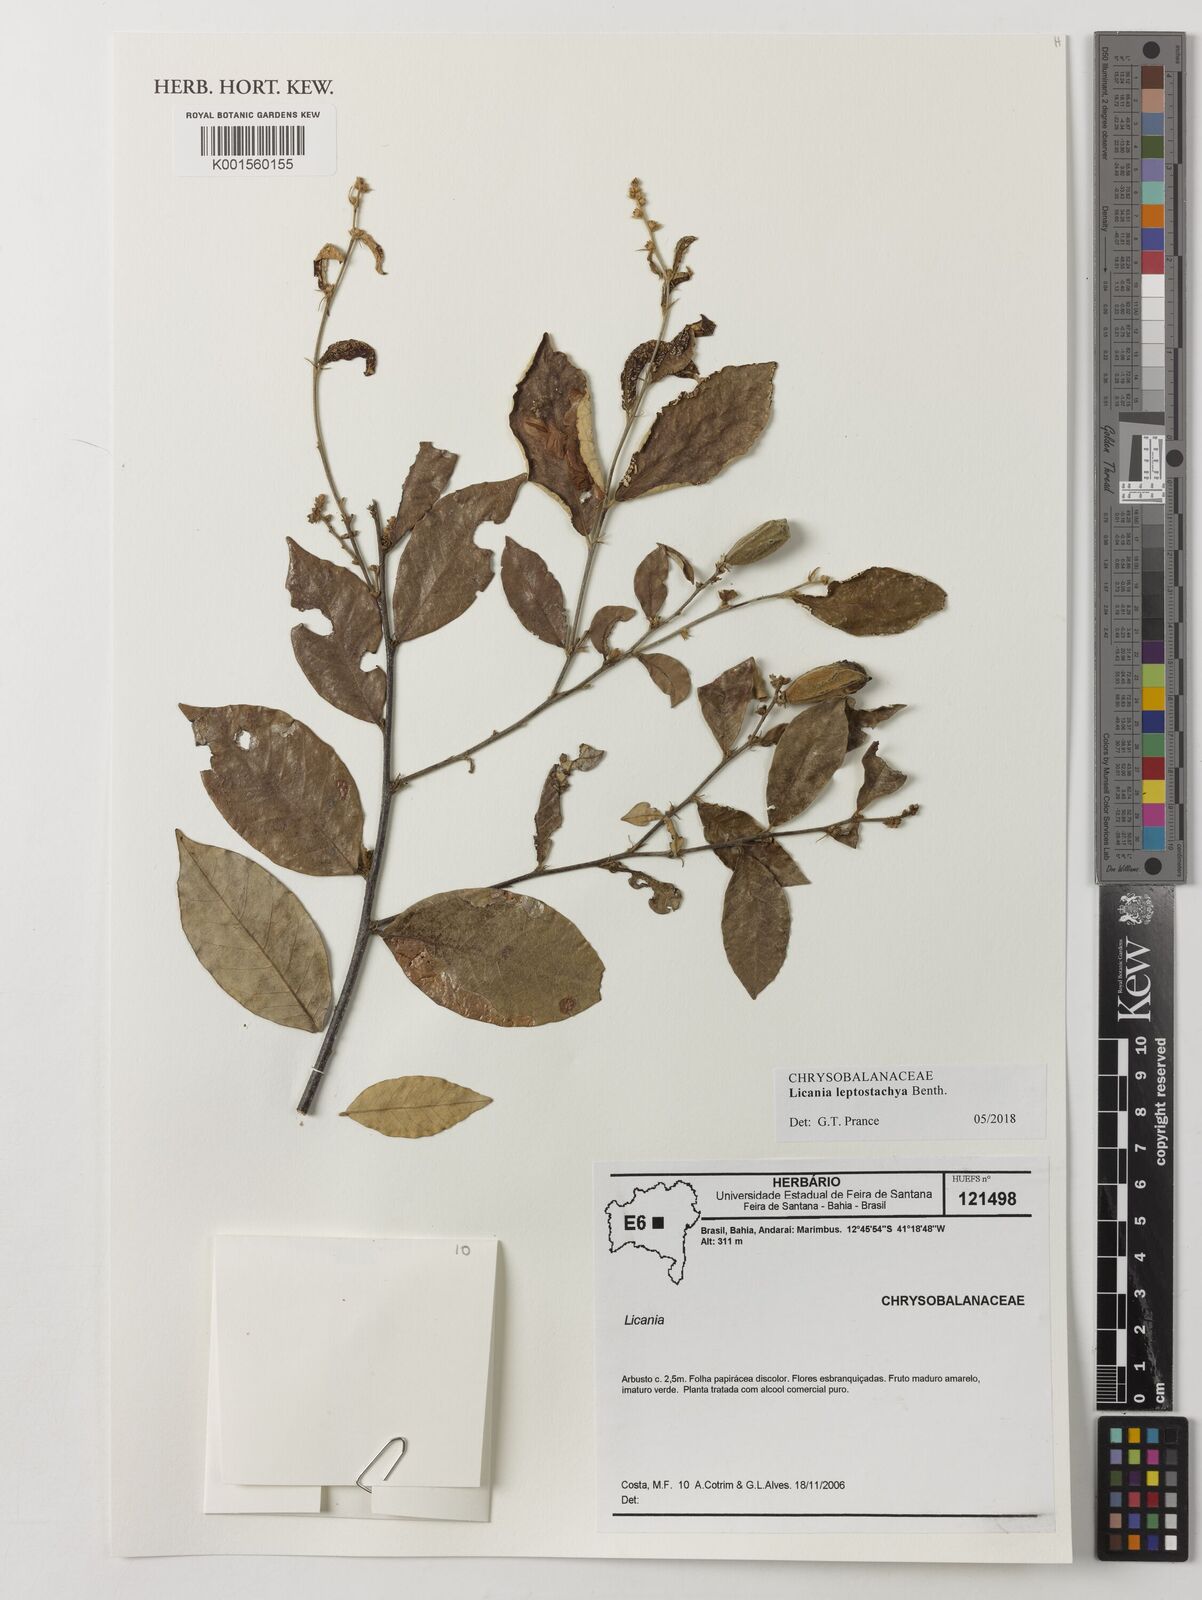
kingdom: Plantae
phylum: Tracheophyta
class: Magnoliopsida
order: Malpighiales
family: Chrysobalanaceae
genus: Licania
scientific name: Licania leptostachya
